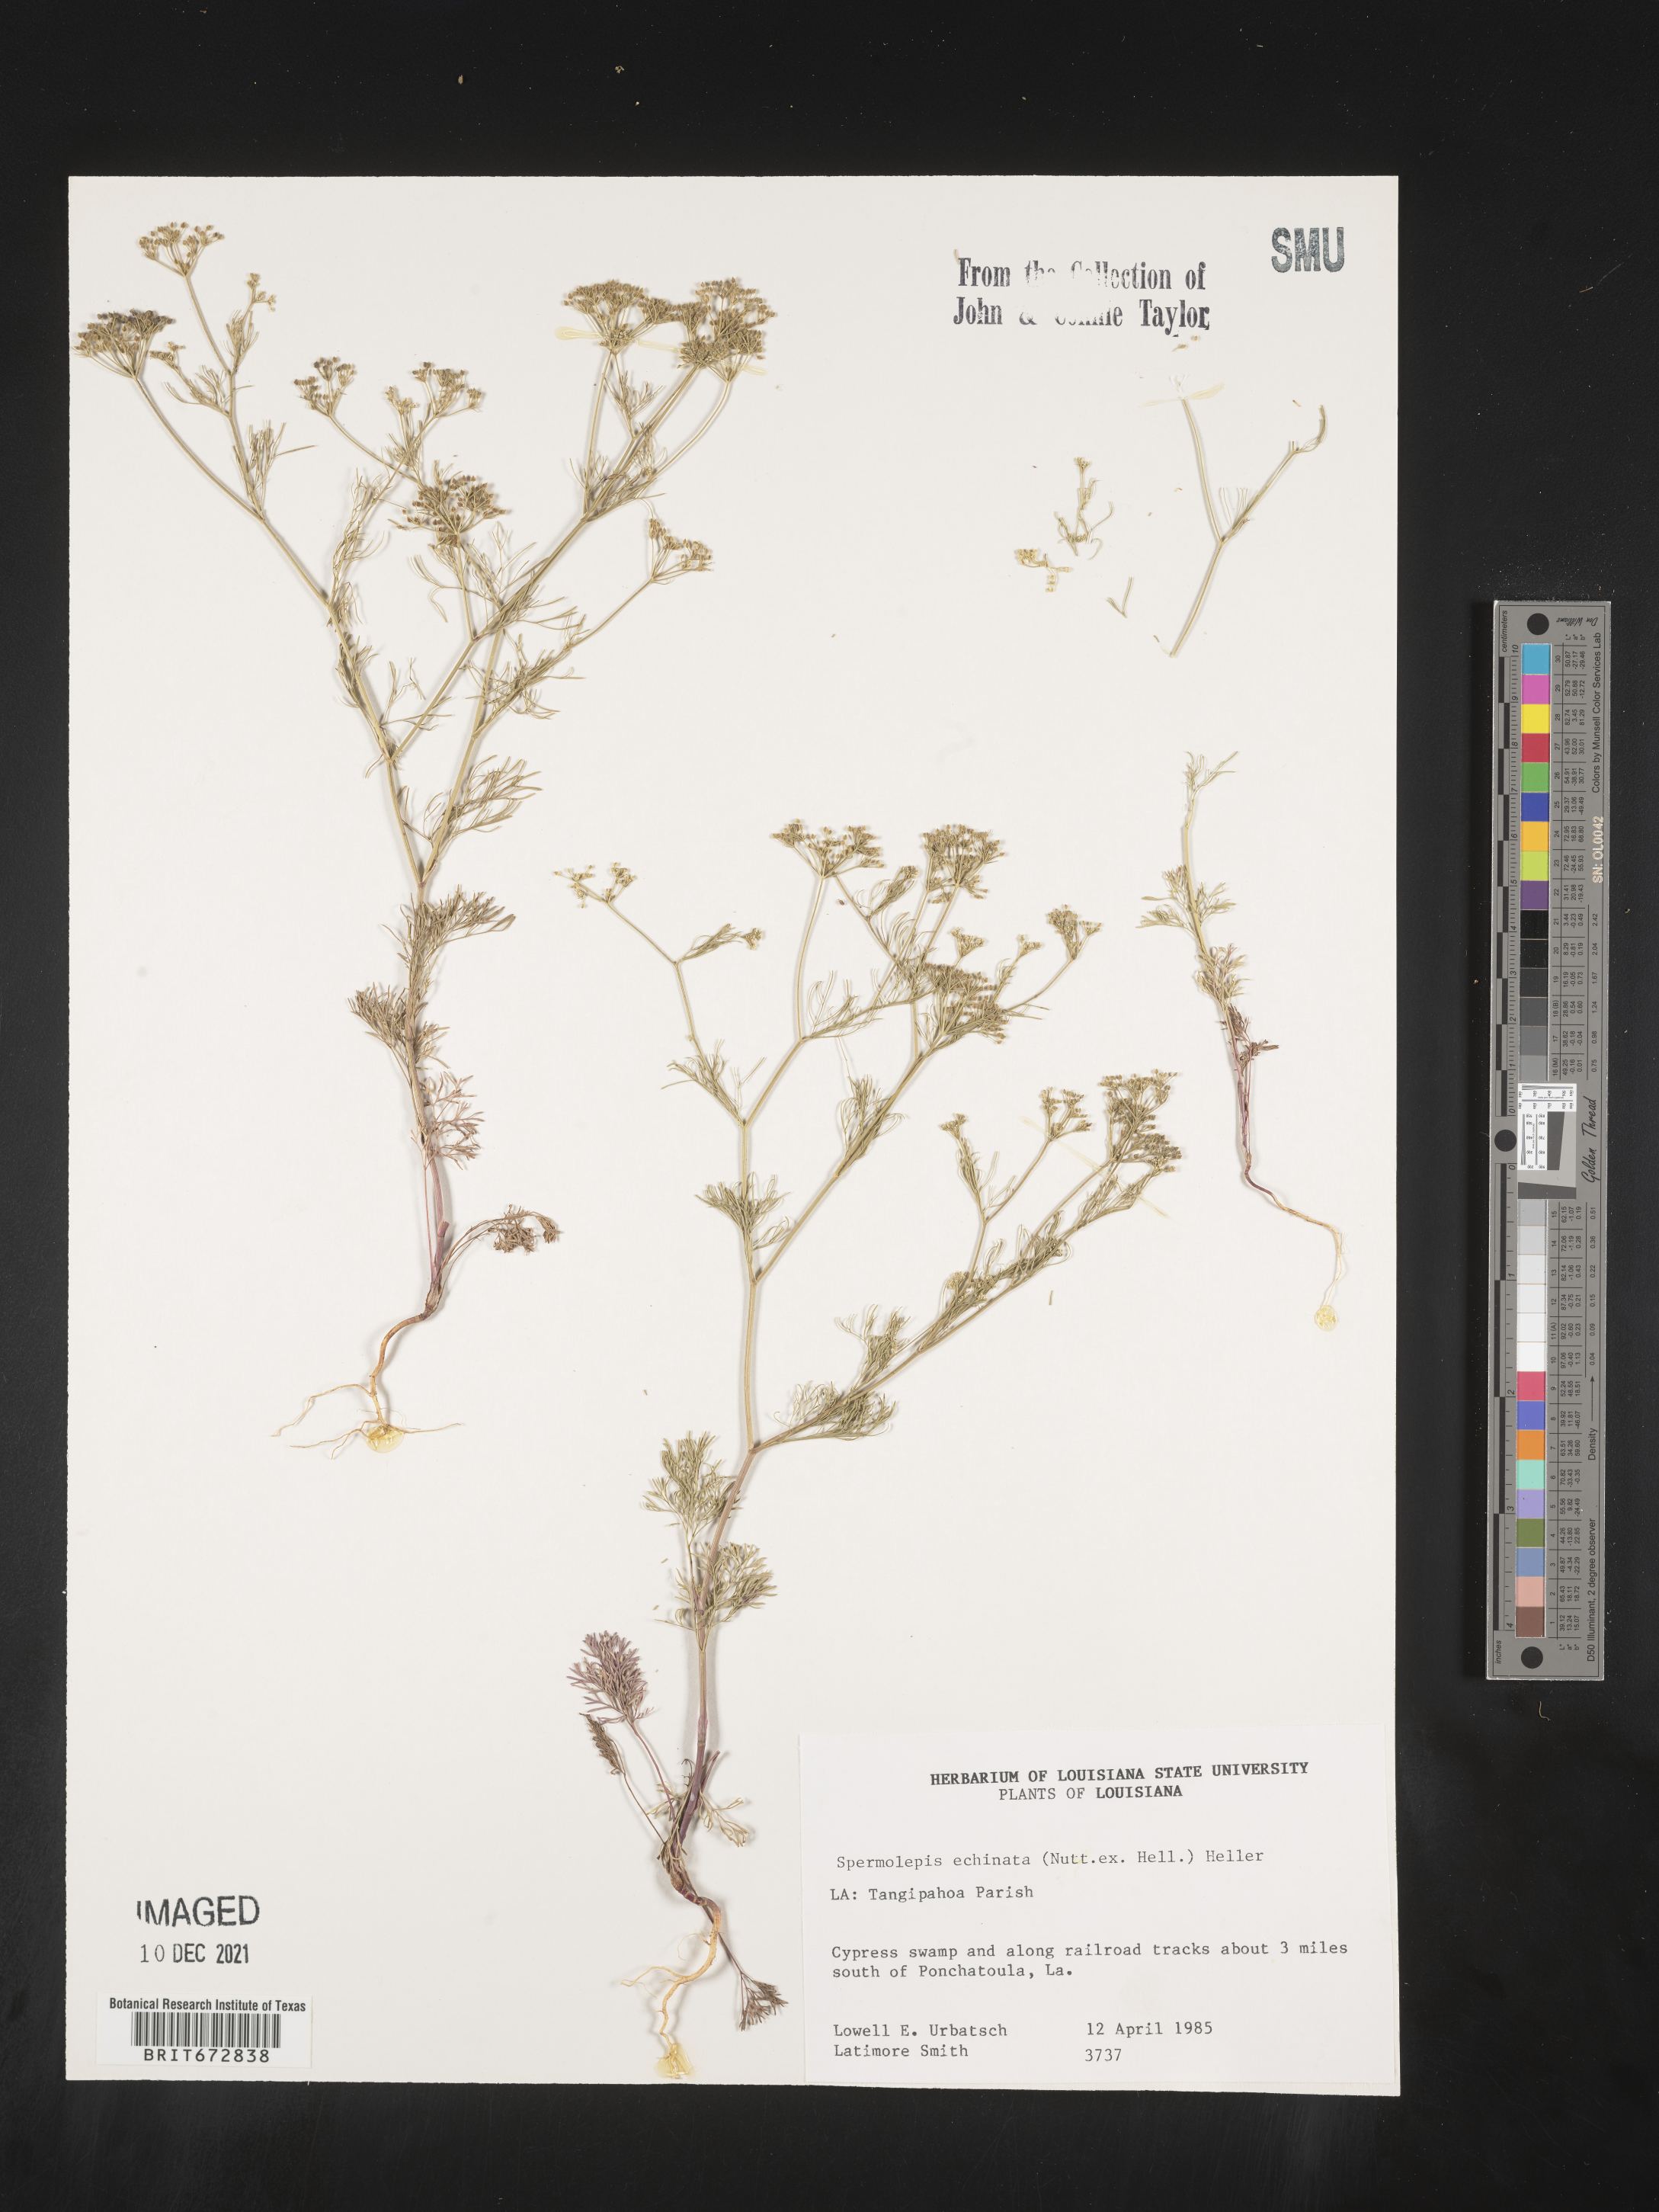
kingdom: Plantae
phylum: Tracheophyta
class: Magnoliopsida
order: Apiales
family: Apiaceae
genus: Spermolepis
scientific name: Spermolepis echinata
